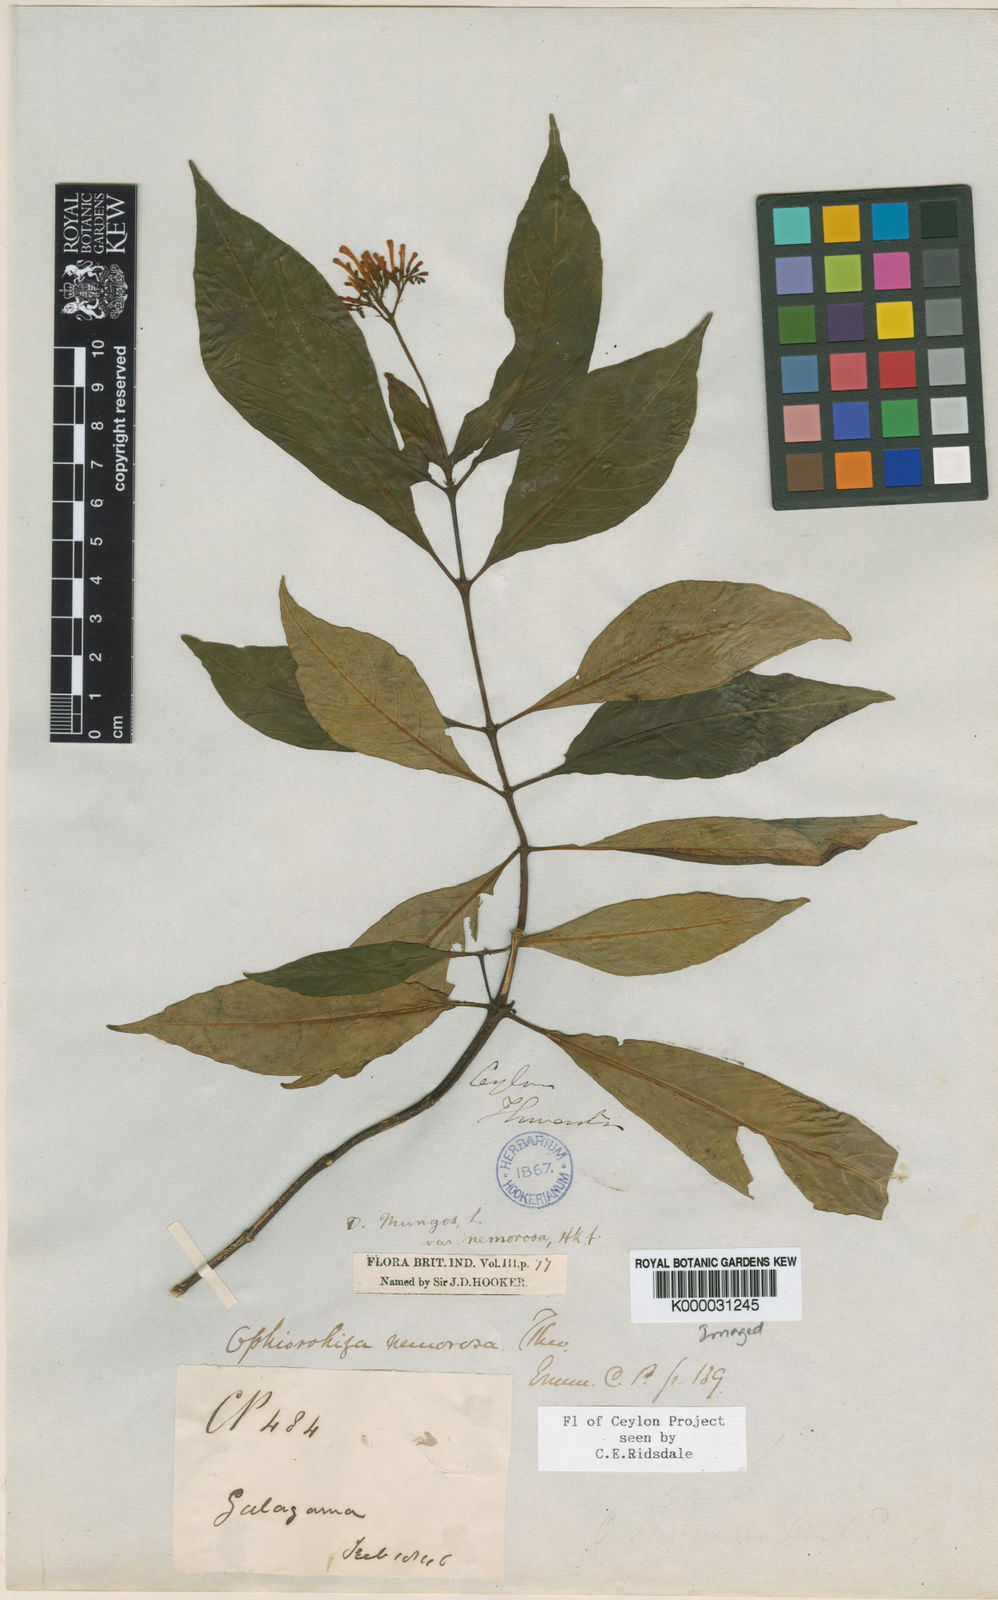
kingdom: Plantae
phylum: Tracheophyta
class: Magnoliopsida
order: Gentianales
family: Rubiaceae
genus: Ophiorrhiza
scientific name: Ophiorrhiza nemorosa
